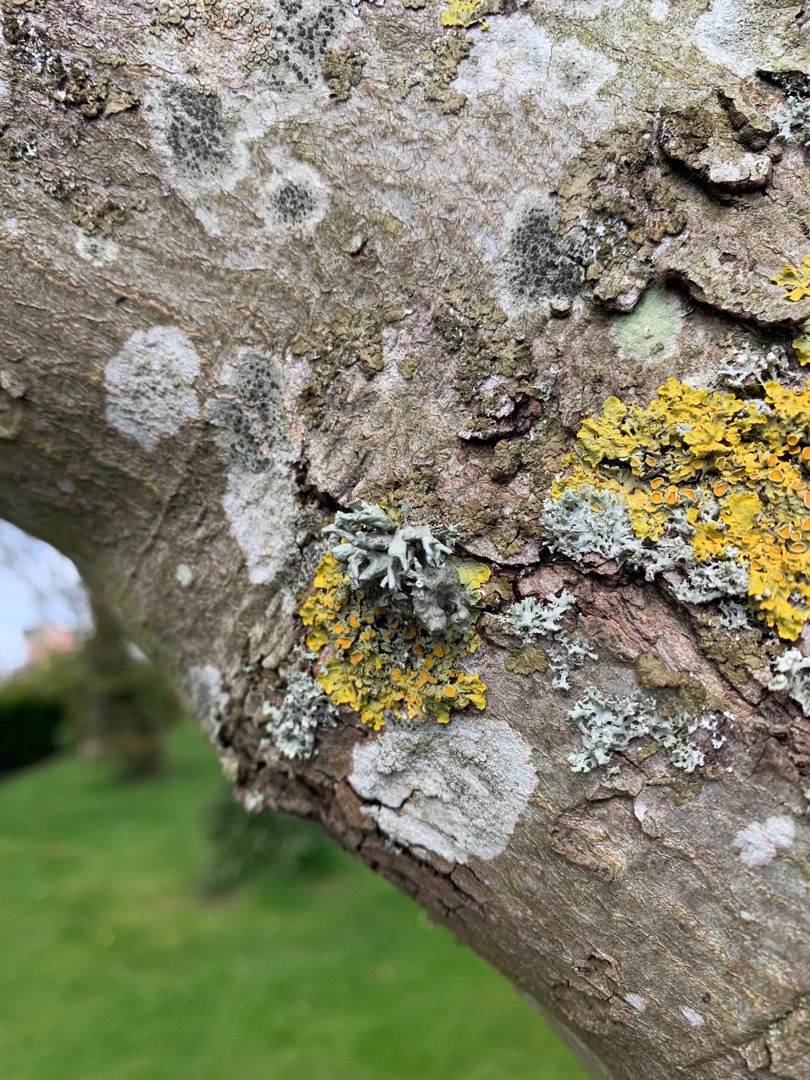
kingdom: Fungi
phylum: Ascomycota
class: Lecanoromycetes
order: Teloschistales
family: Teloschistaceae
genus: Xanthoria
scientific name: Xanthoria parietina
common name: Almindelig væggelav
